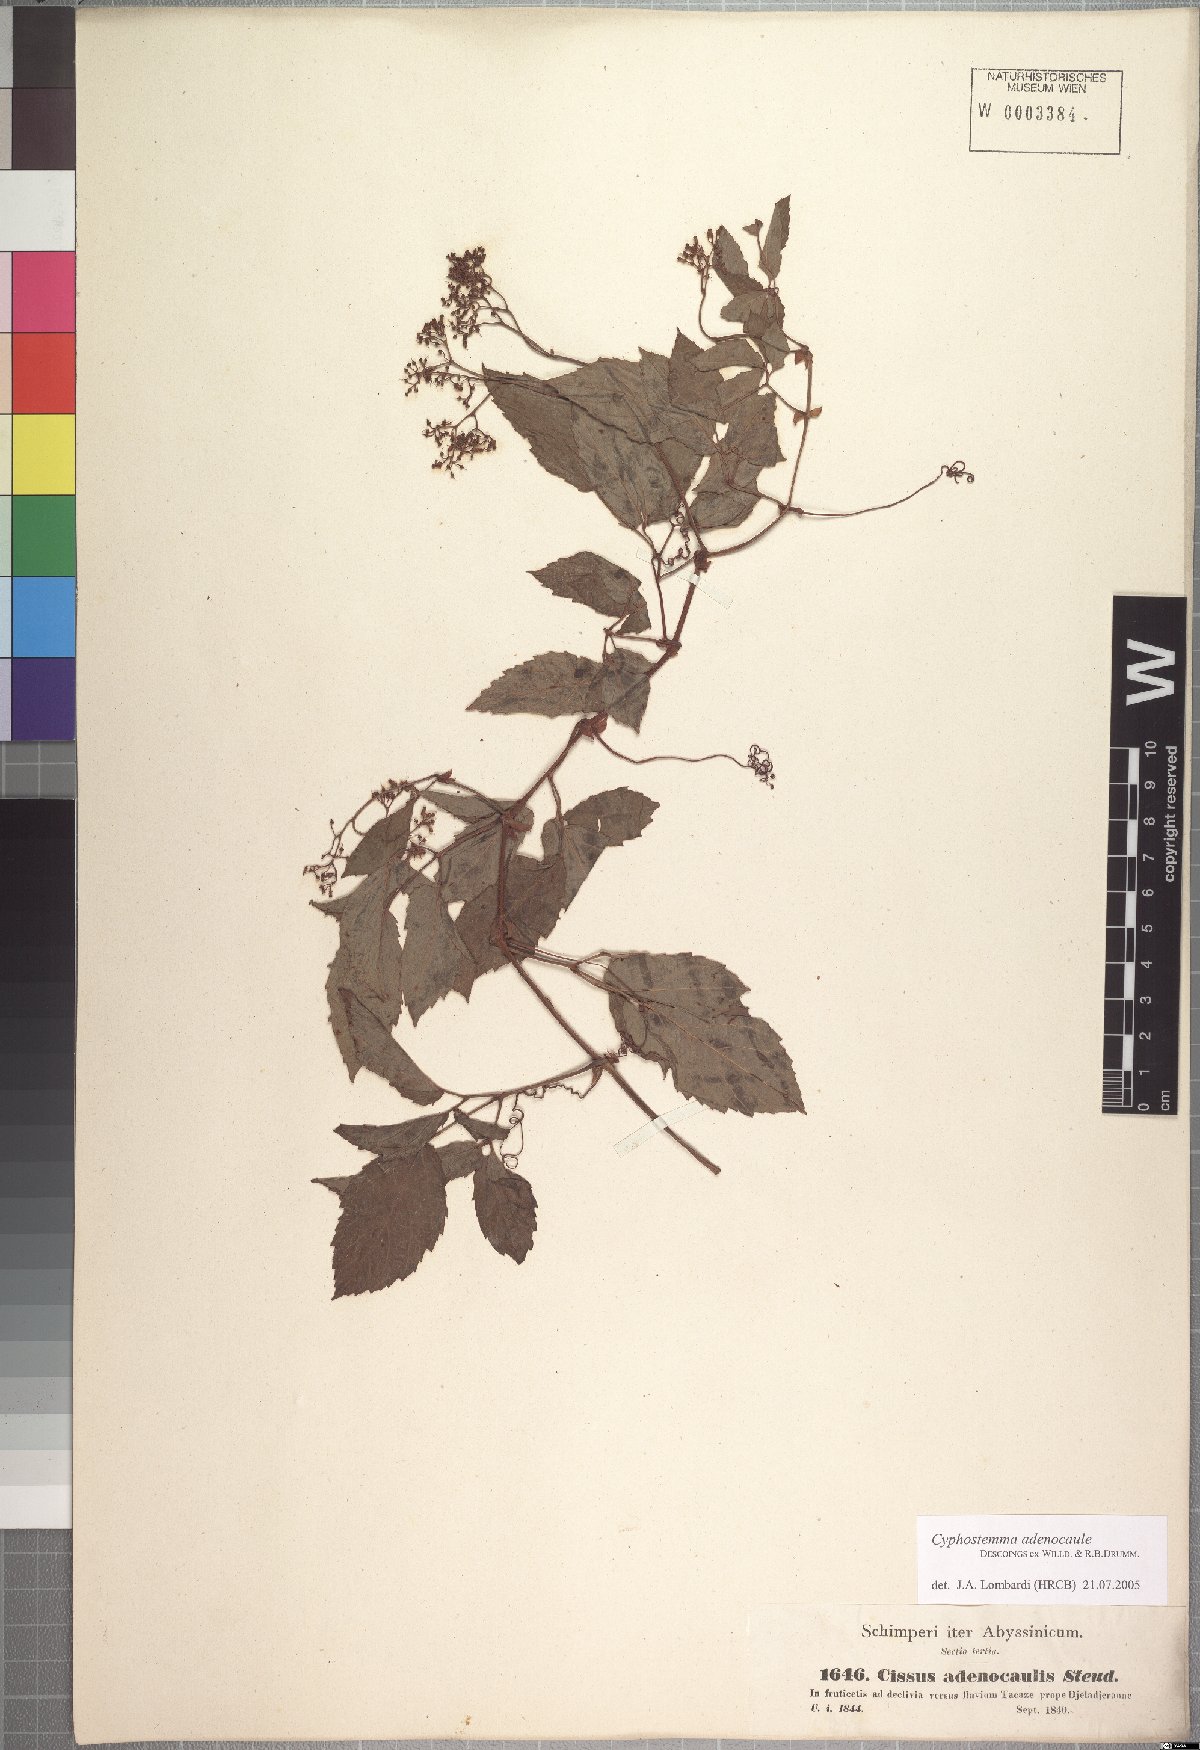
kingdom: Plantae
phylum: Tracheophyta
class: Magnoliopsida
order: Vitales
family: Vitaceae
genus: Cyphostemma
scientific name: Cyphostemma adenocaule
